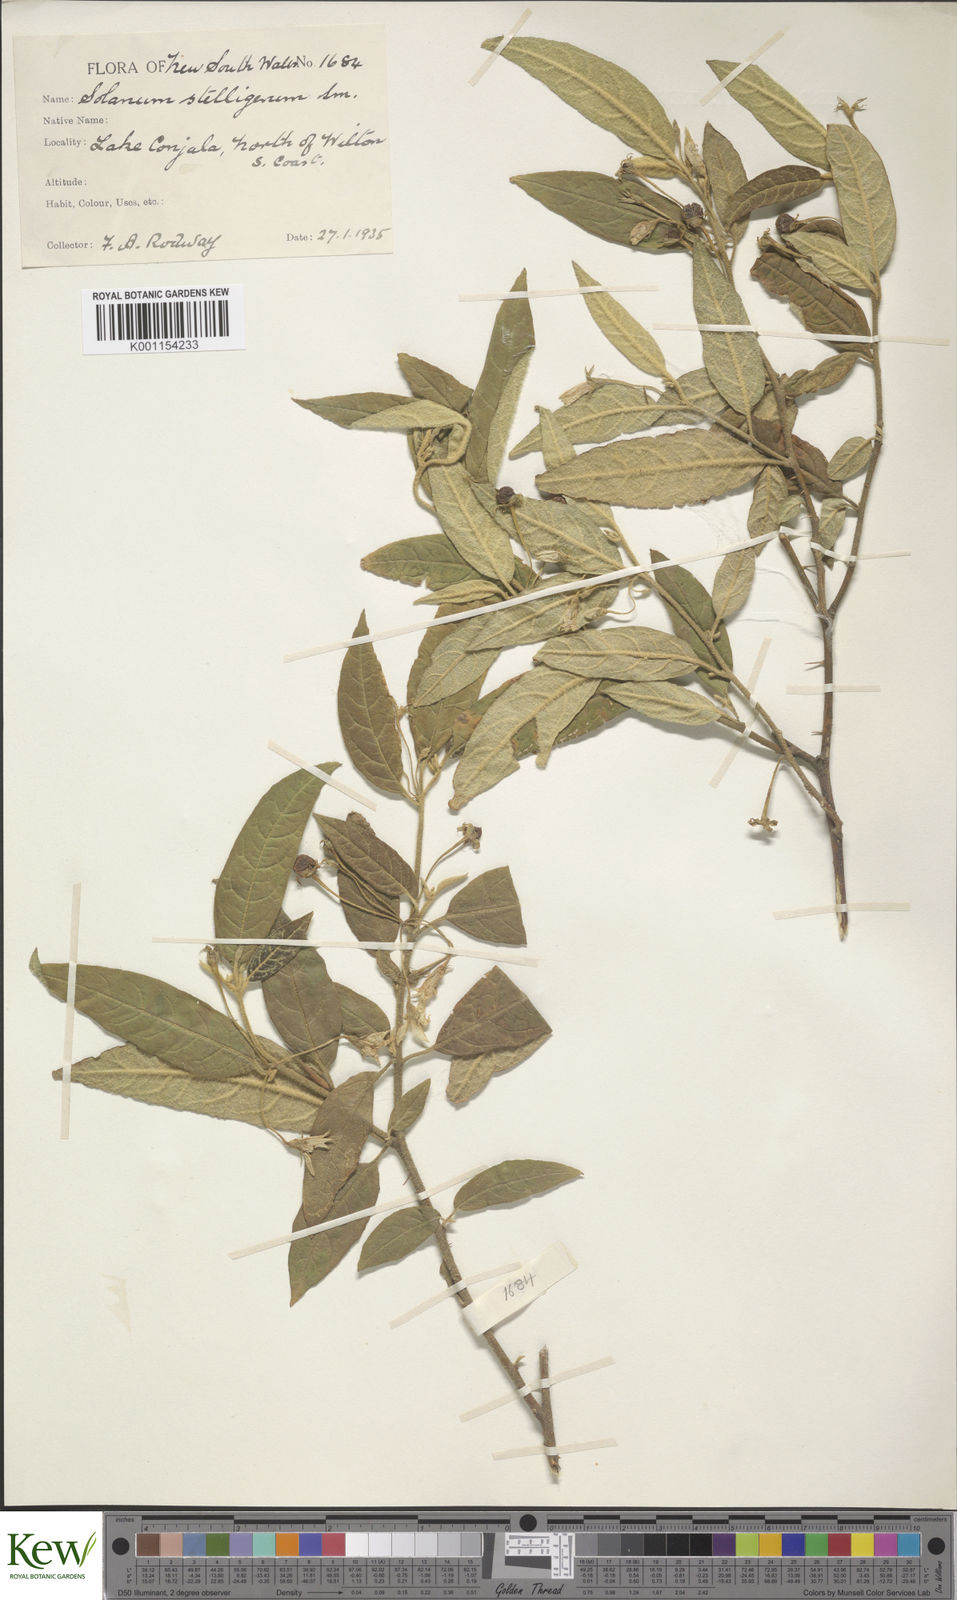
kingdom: Plantae
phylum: Tracheophyta
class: Magnoliopsida
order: Solanales
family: Solanaceae
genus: Solanum
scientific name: Solanum stelligerum
